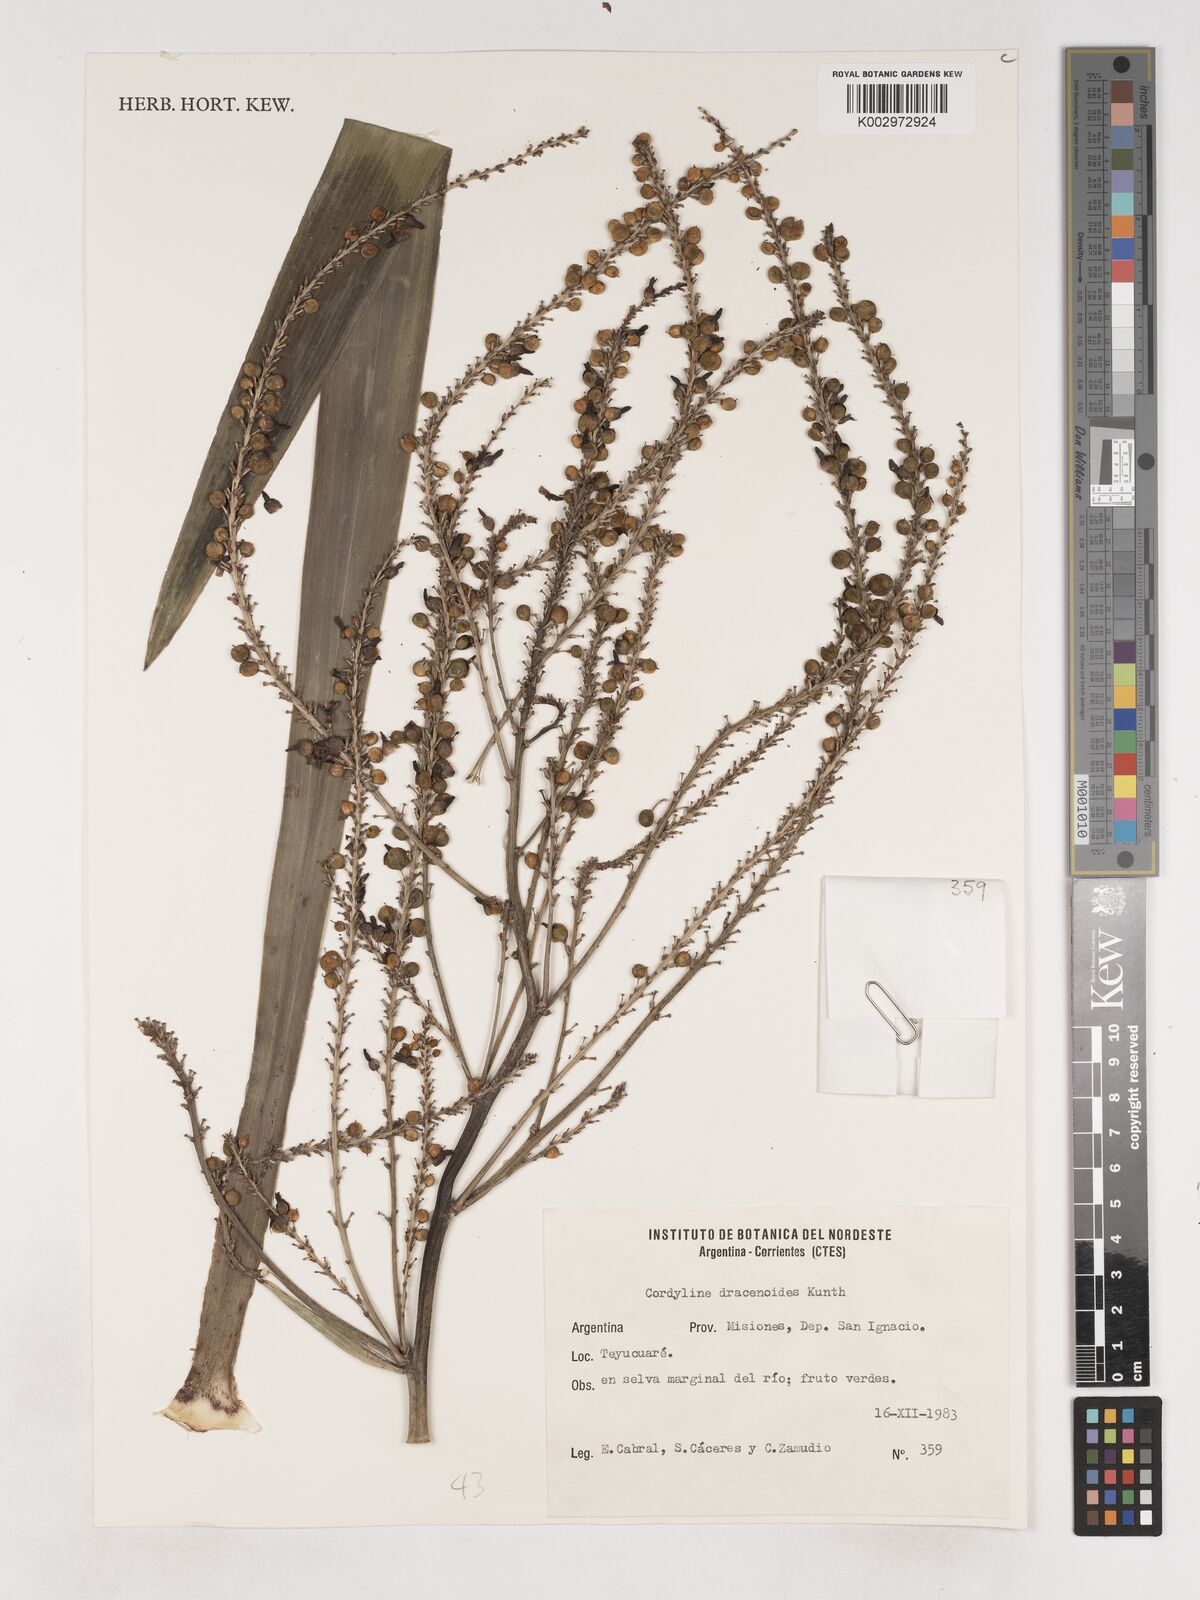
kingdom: Plantae
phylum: Tracheophyta
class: Liliopsida
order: Asparagales
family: Asparagaceae
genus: Cordyline
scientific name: Cordyline congesta
